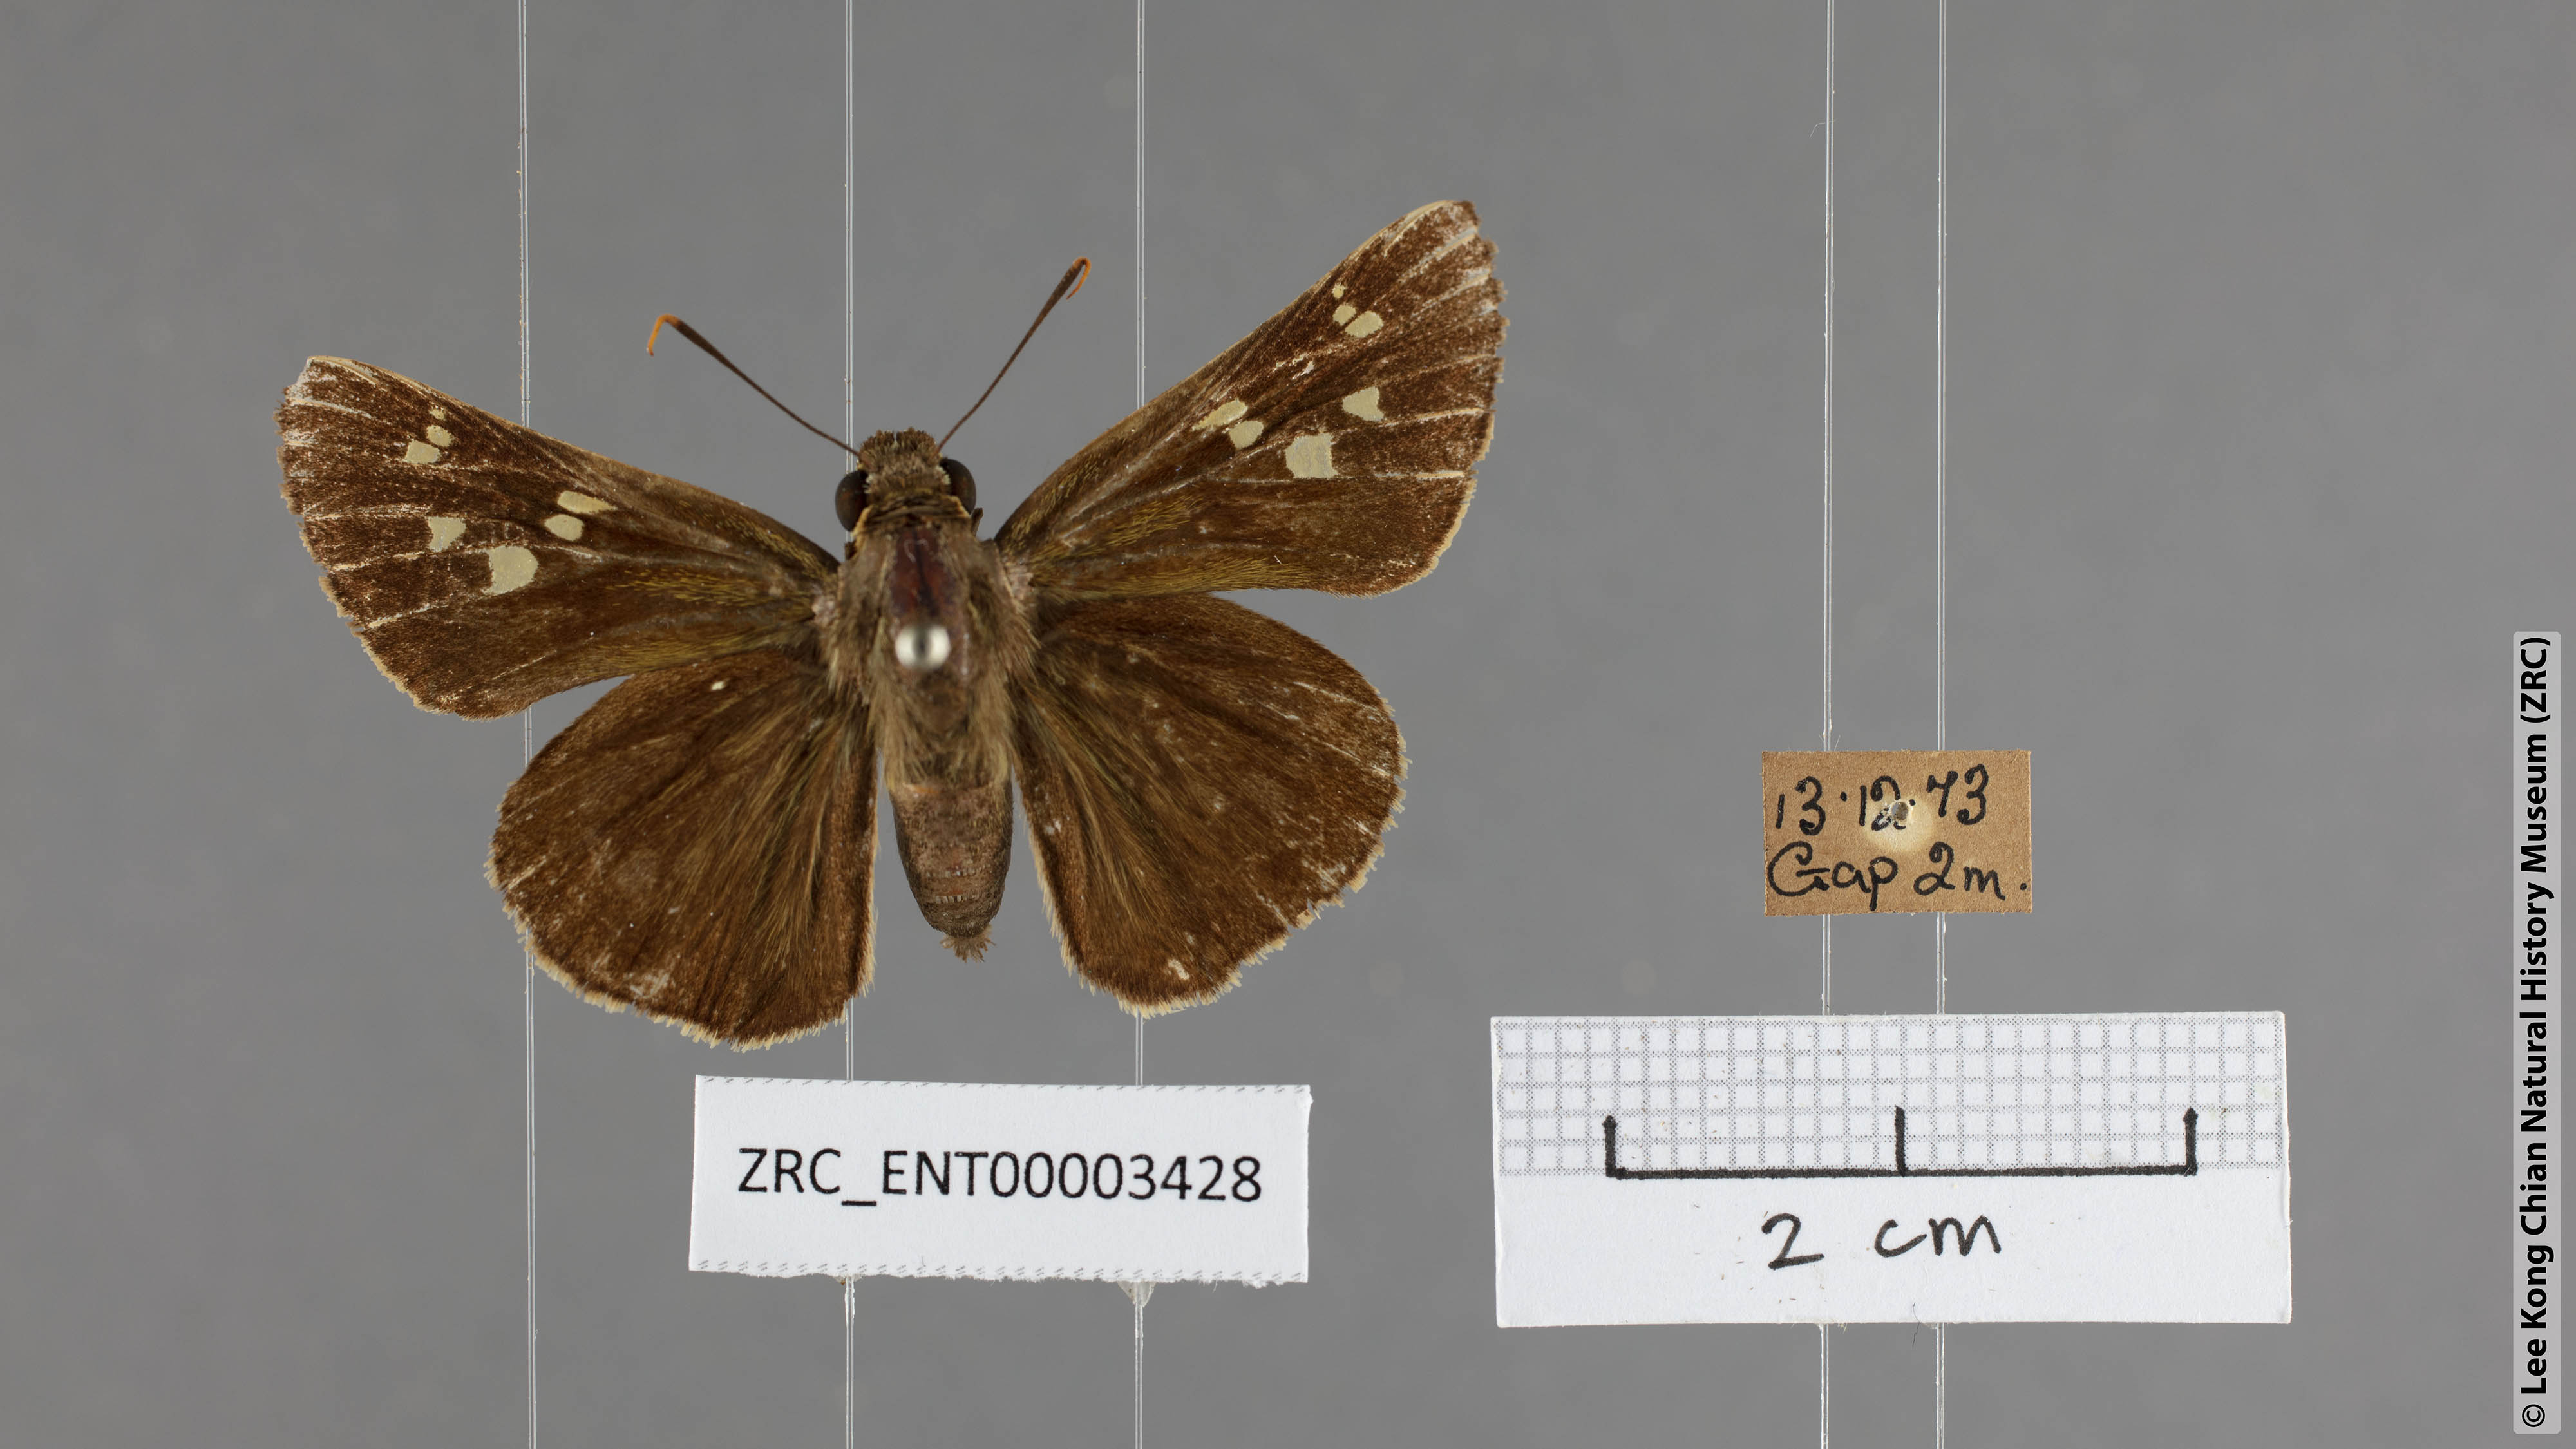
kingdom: Animalia
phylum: Arthropoda
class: Insecta
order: Lepidoptera
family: Hesperiidae
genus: Pithauria
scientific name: Pithauria marsena
